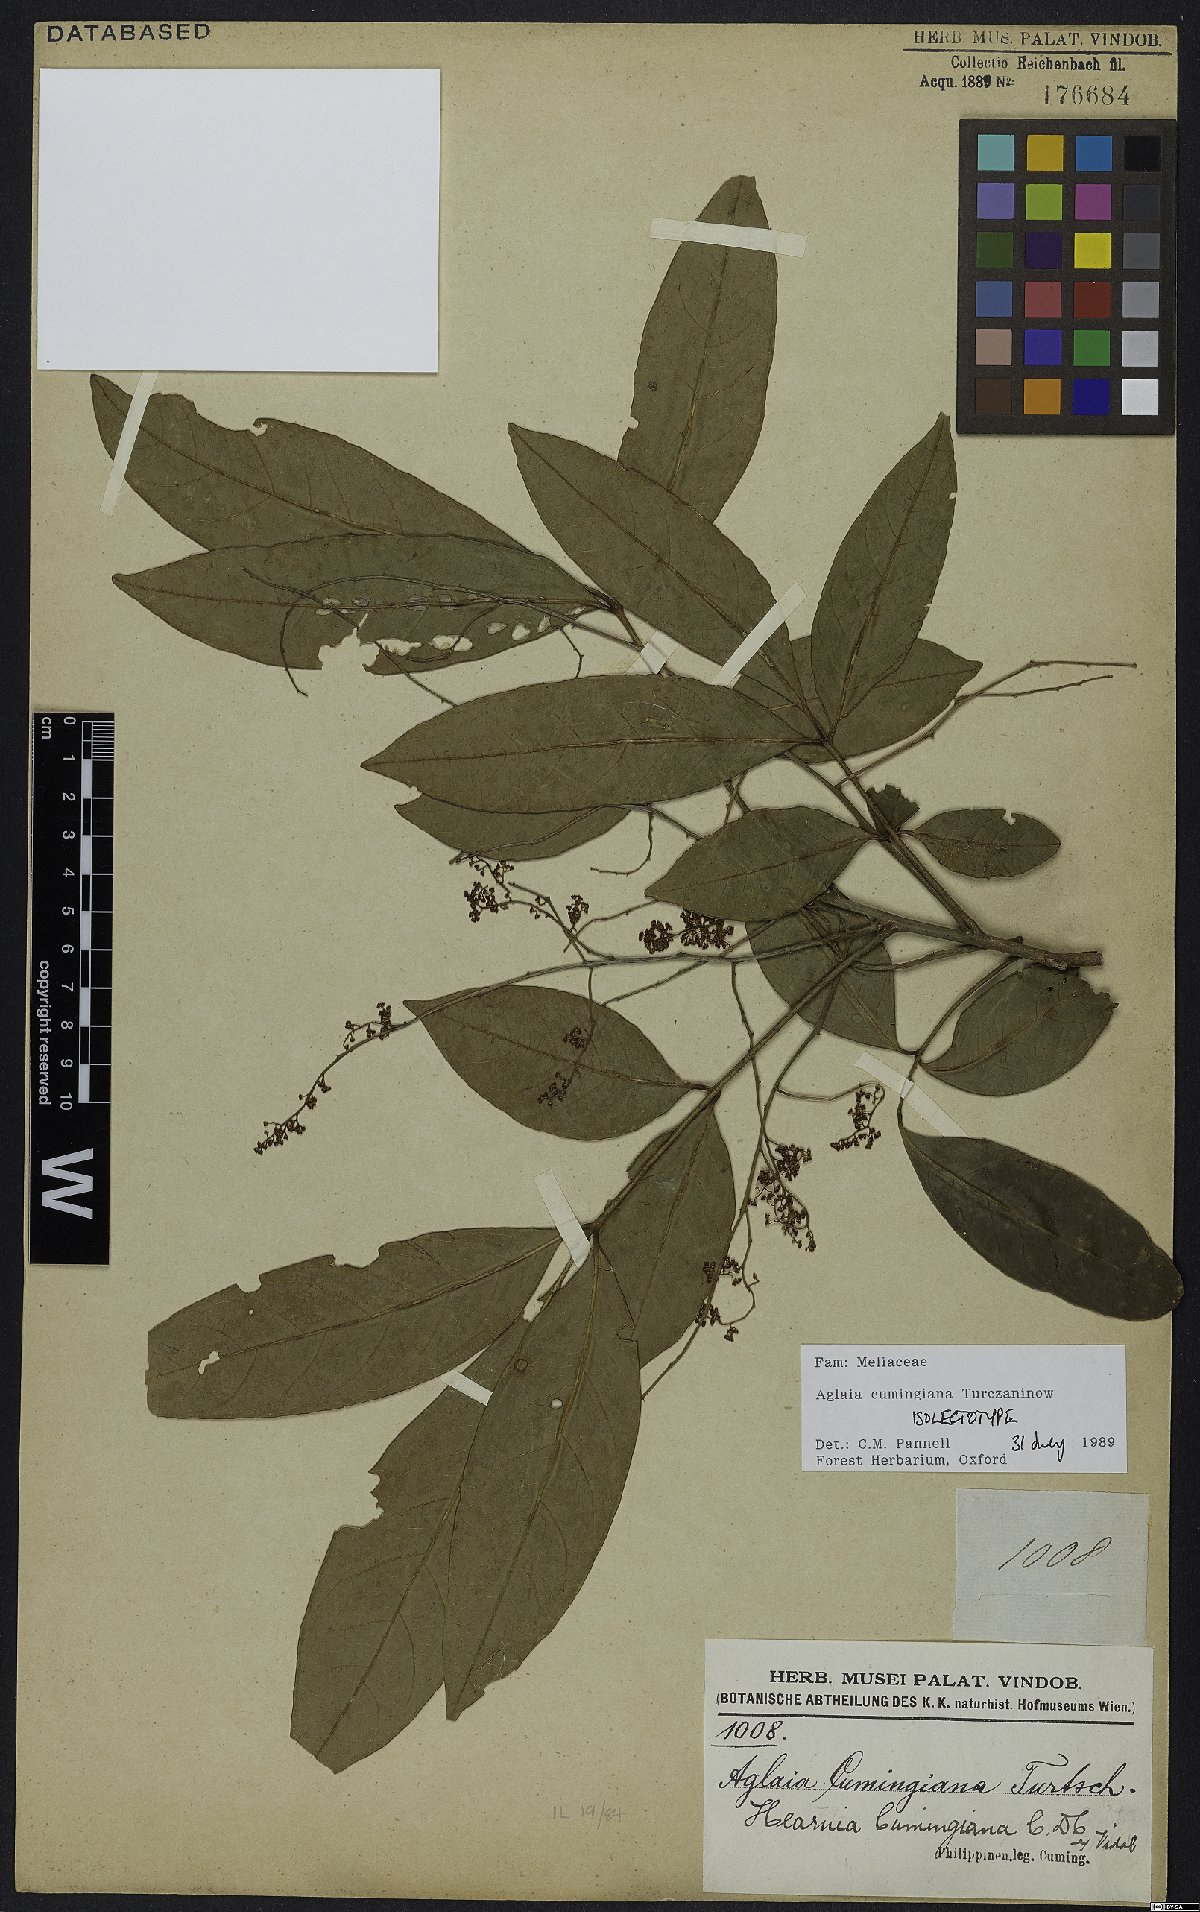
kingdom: Plantae
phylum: Tracheophyta
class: Magnoliopsida
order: Sapindales
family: Meliaceae
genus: Aglaia
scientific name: Aglaia cumingiana
